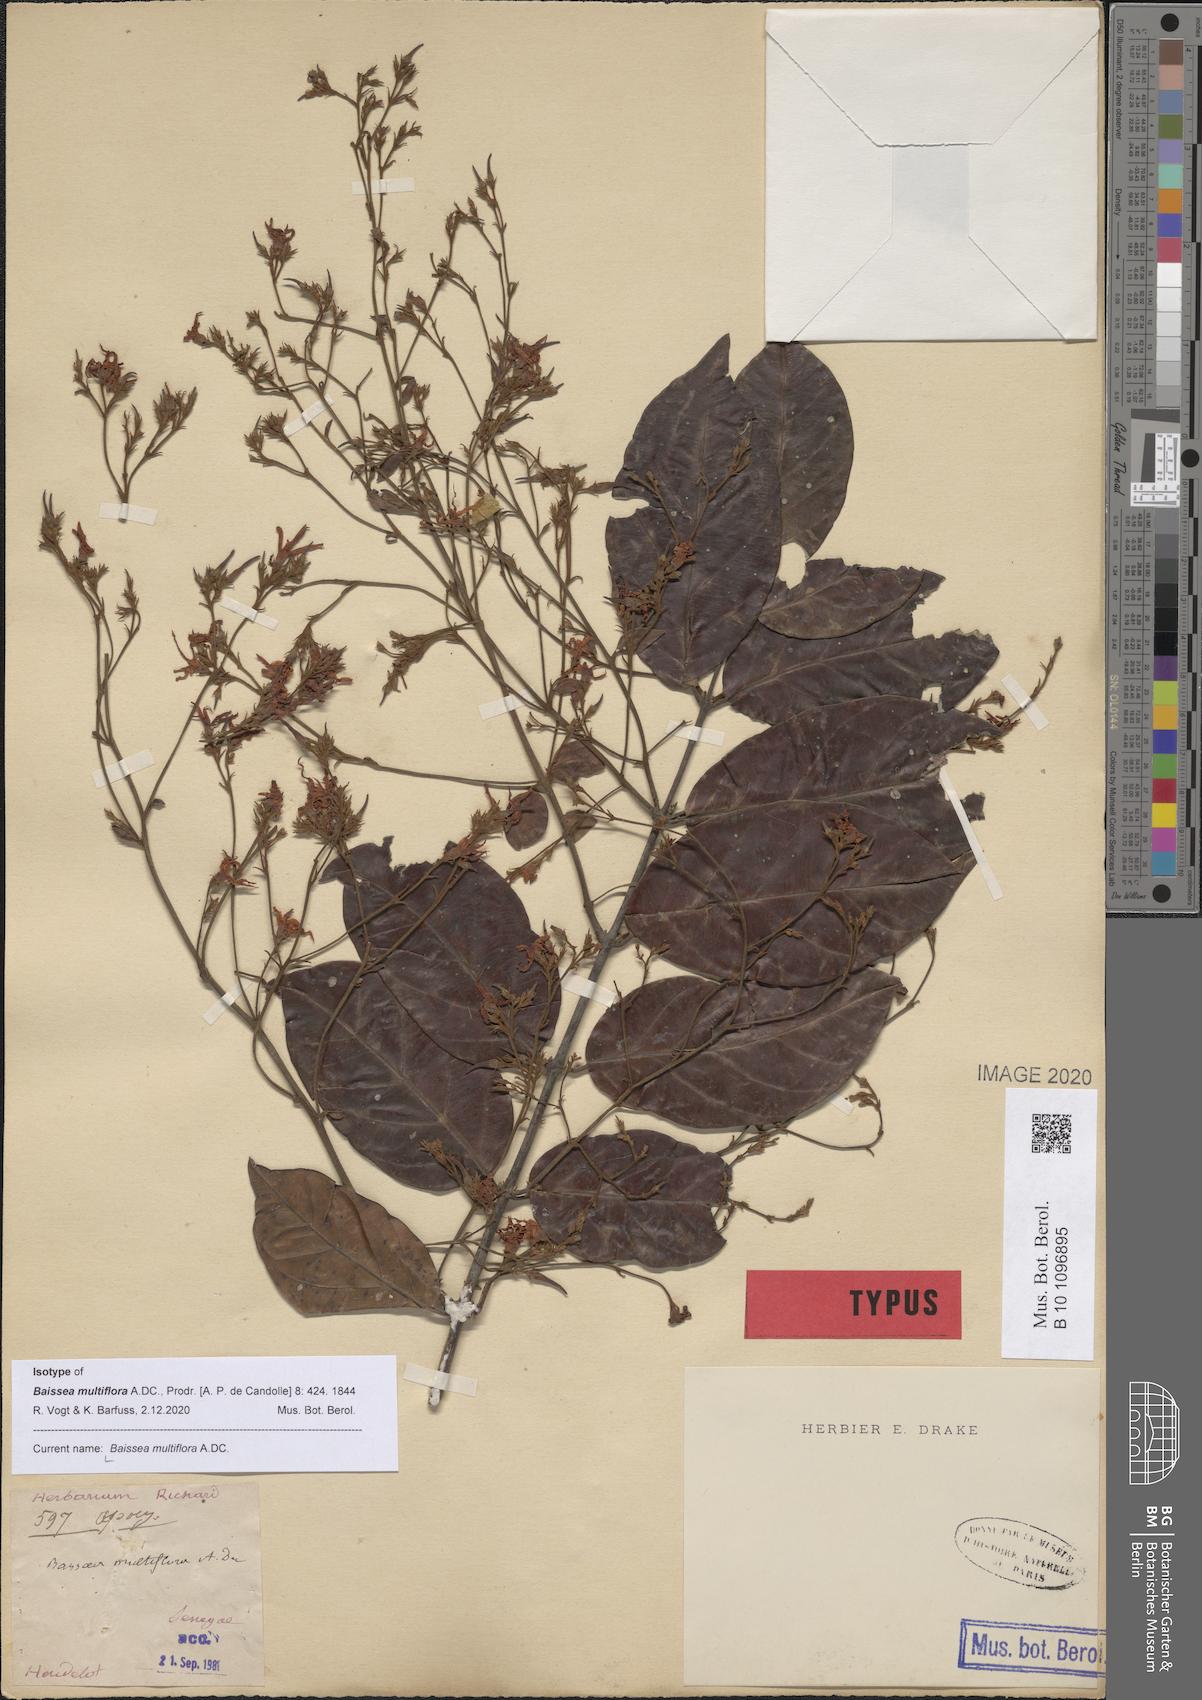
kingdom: Plantae
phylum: Tracheophyta
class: Magnoliopsida
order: Gentianales
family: Apocynaceae
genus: Baissea
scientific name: Baissea multiflora
